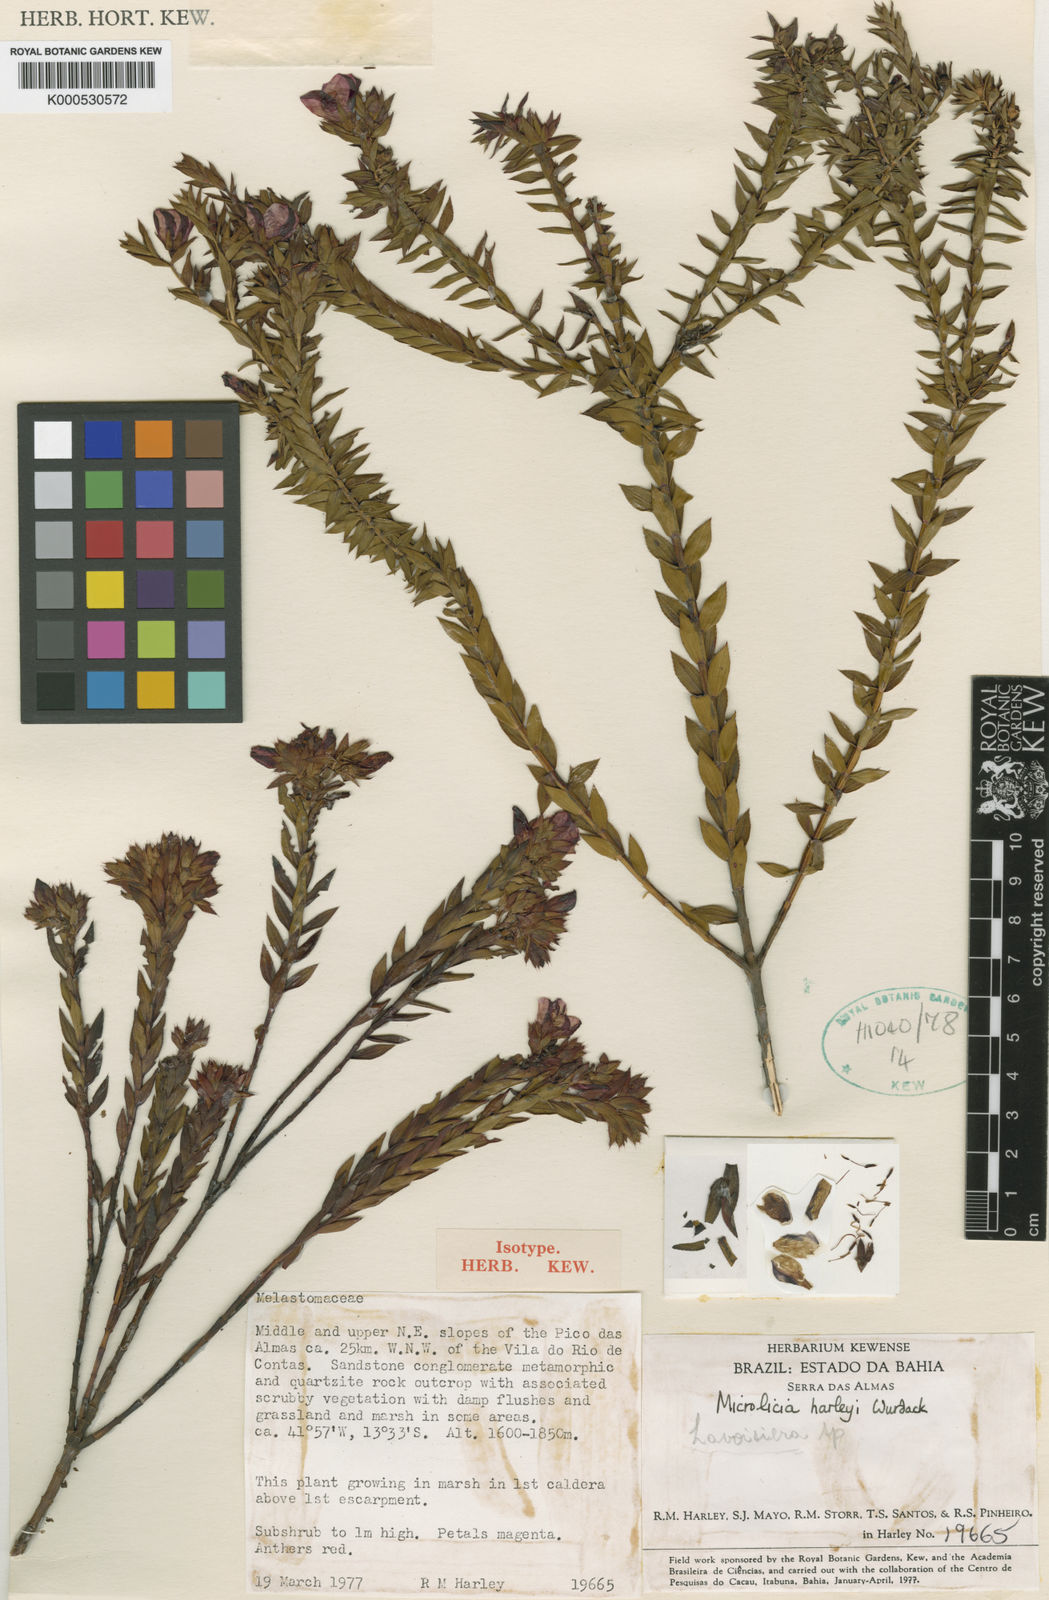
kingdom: Plantae
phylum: Tracheophyta
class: Magnoliopsida
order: Myrtales
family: Melastomataceae
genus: Microlicia
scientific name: Microlicia harleyi
